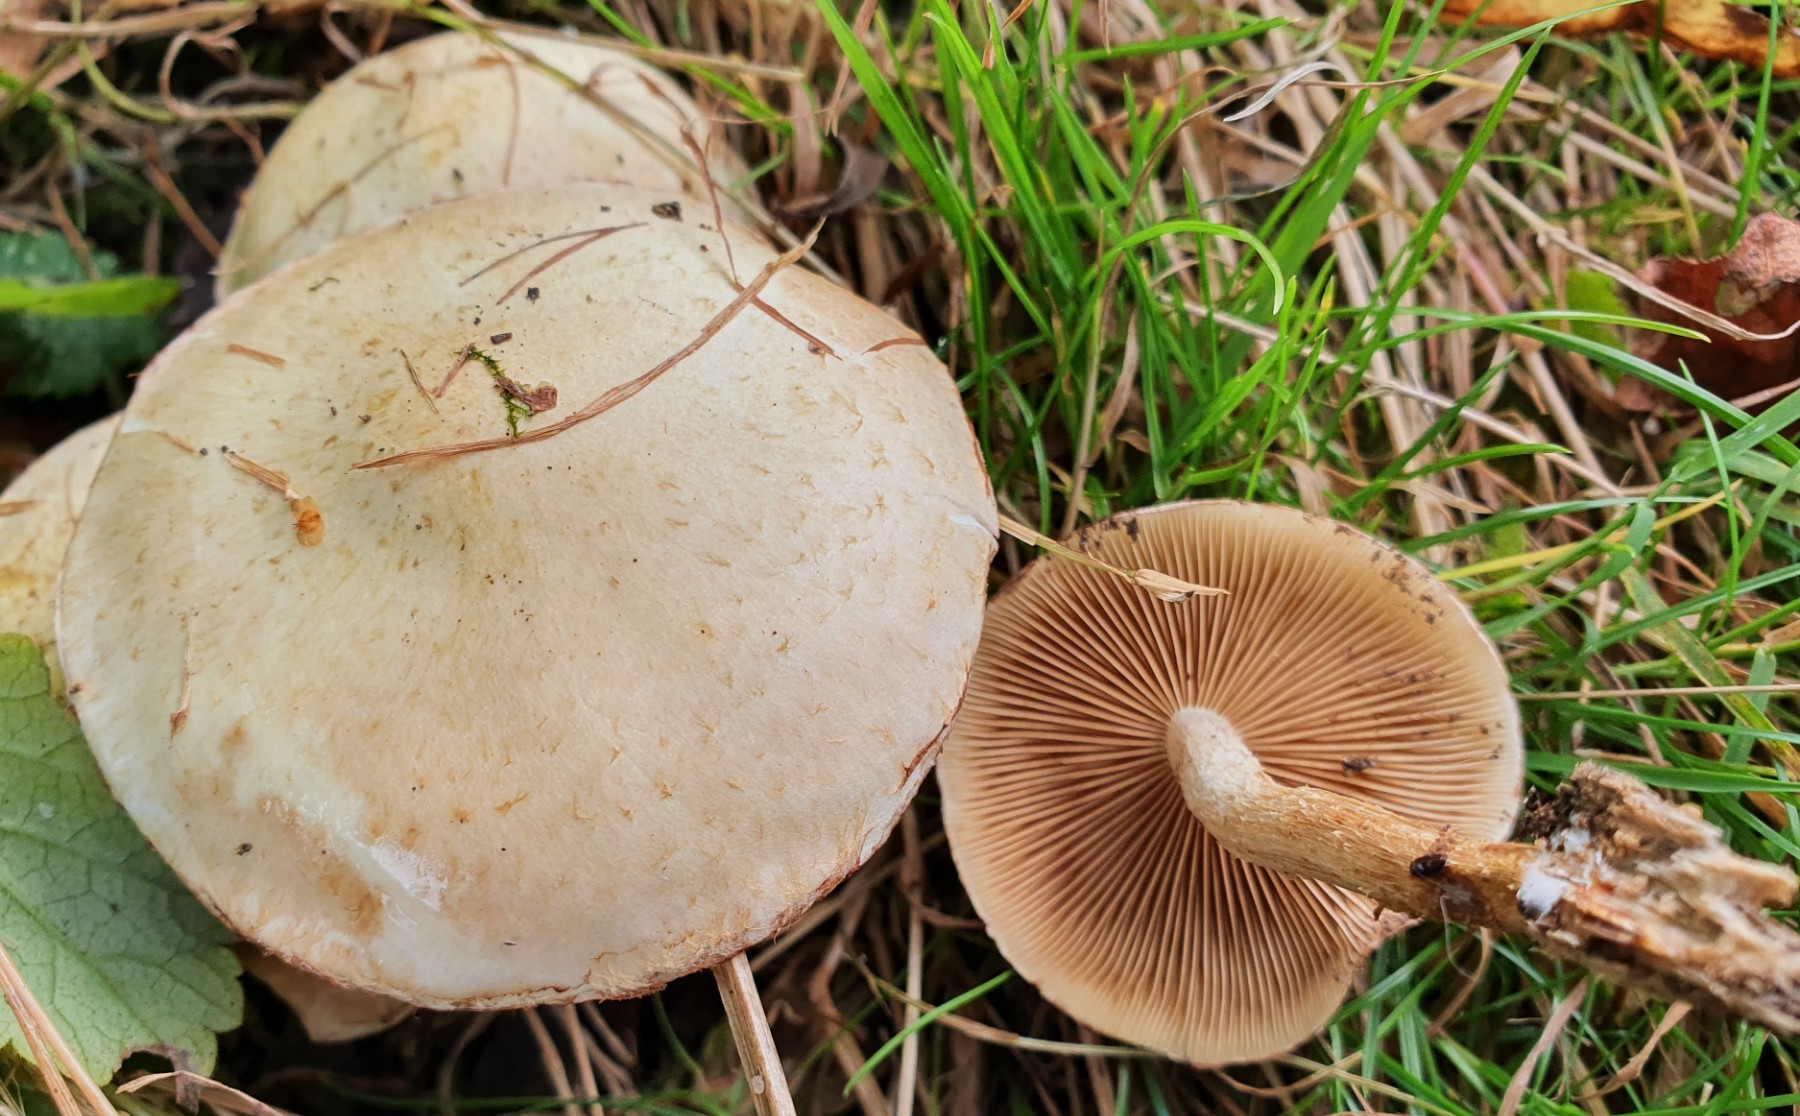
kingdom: Fungi
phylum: Basidiomycota
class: Agaricomycetes
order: Agaricales
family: Strophariaceae
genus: Pholiota
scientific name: Pholiota gummosa
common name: grøngul skælhat
